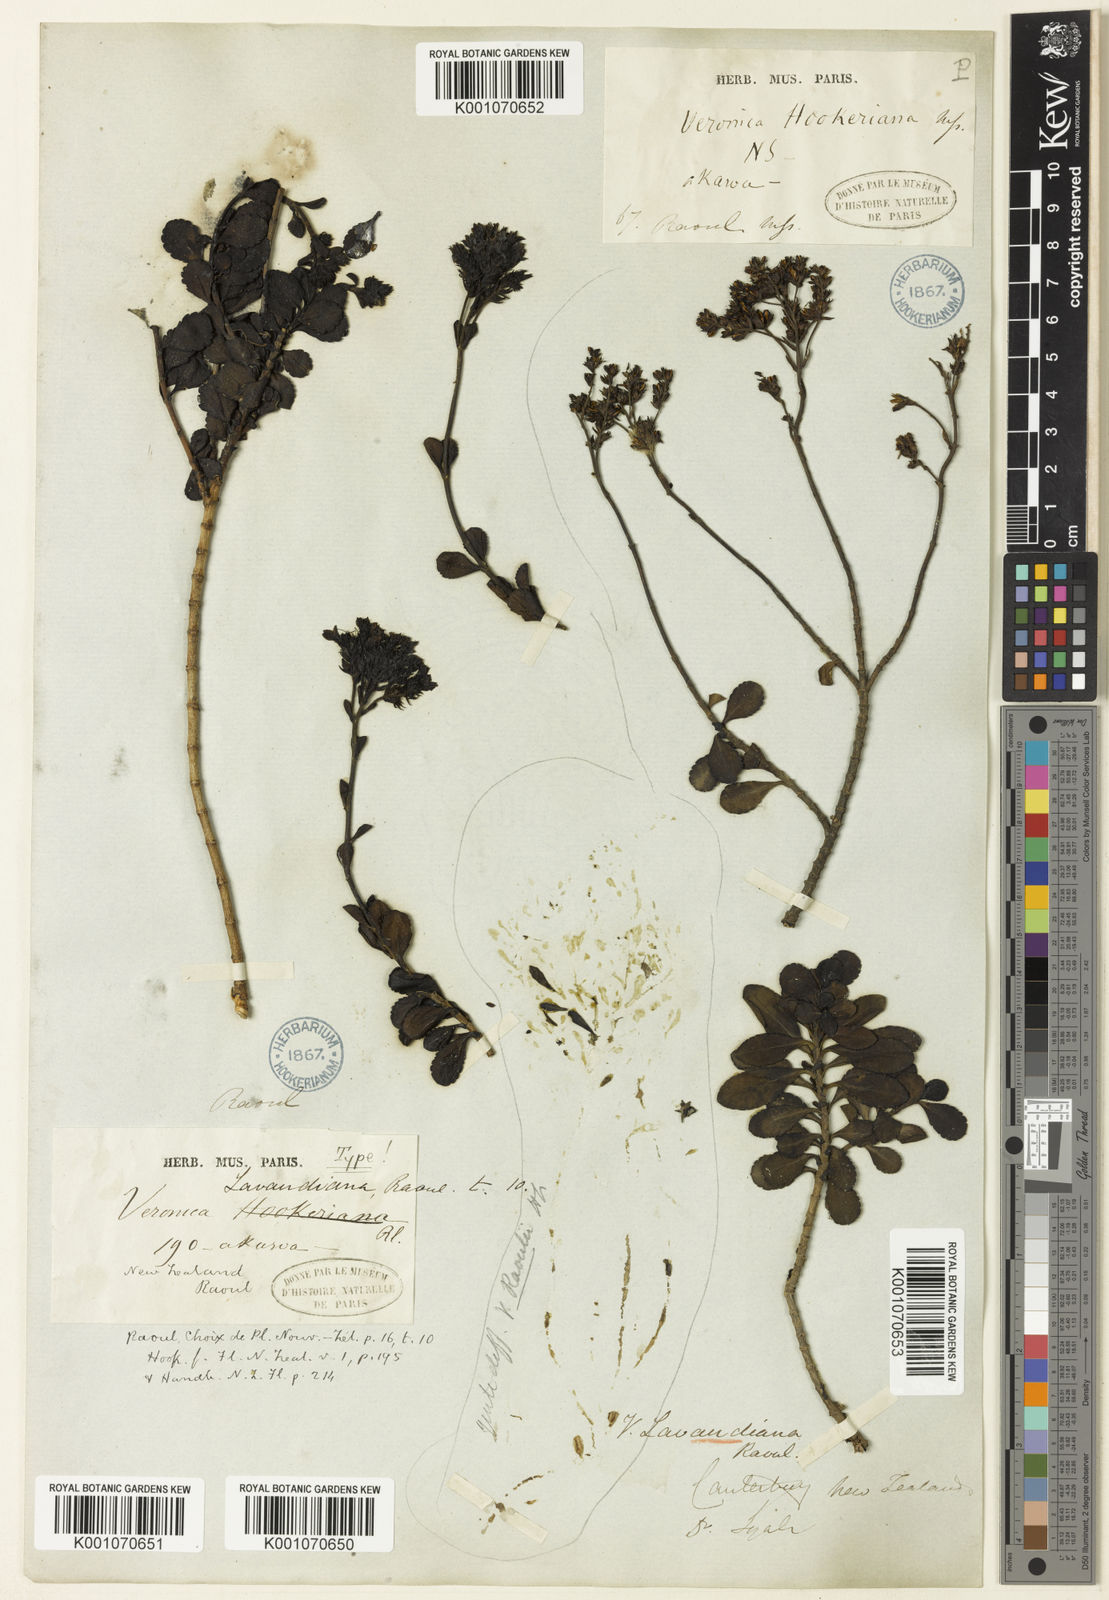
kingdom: Plantae
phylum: Tracheophyta
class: Magnoliopsida
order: Lamiales
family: Plantaginaceae
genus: Veronica
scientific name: Veronica
